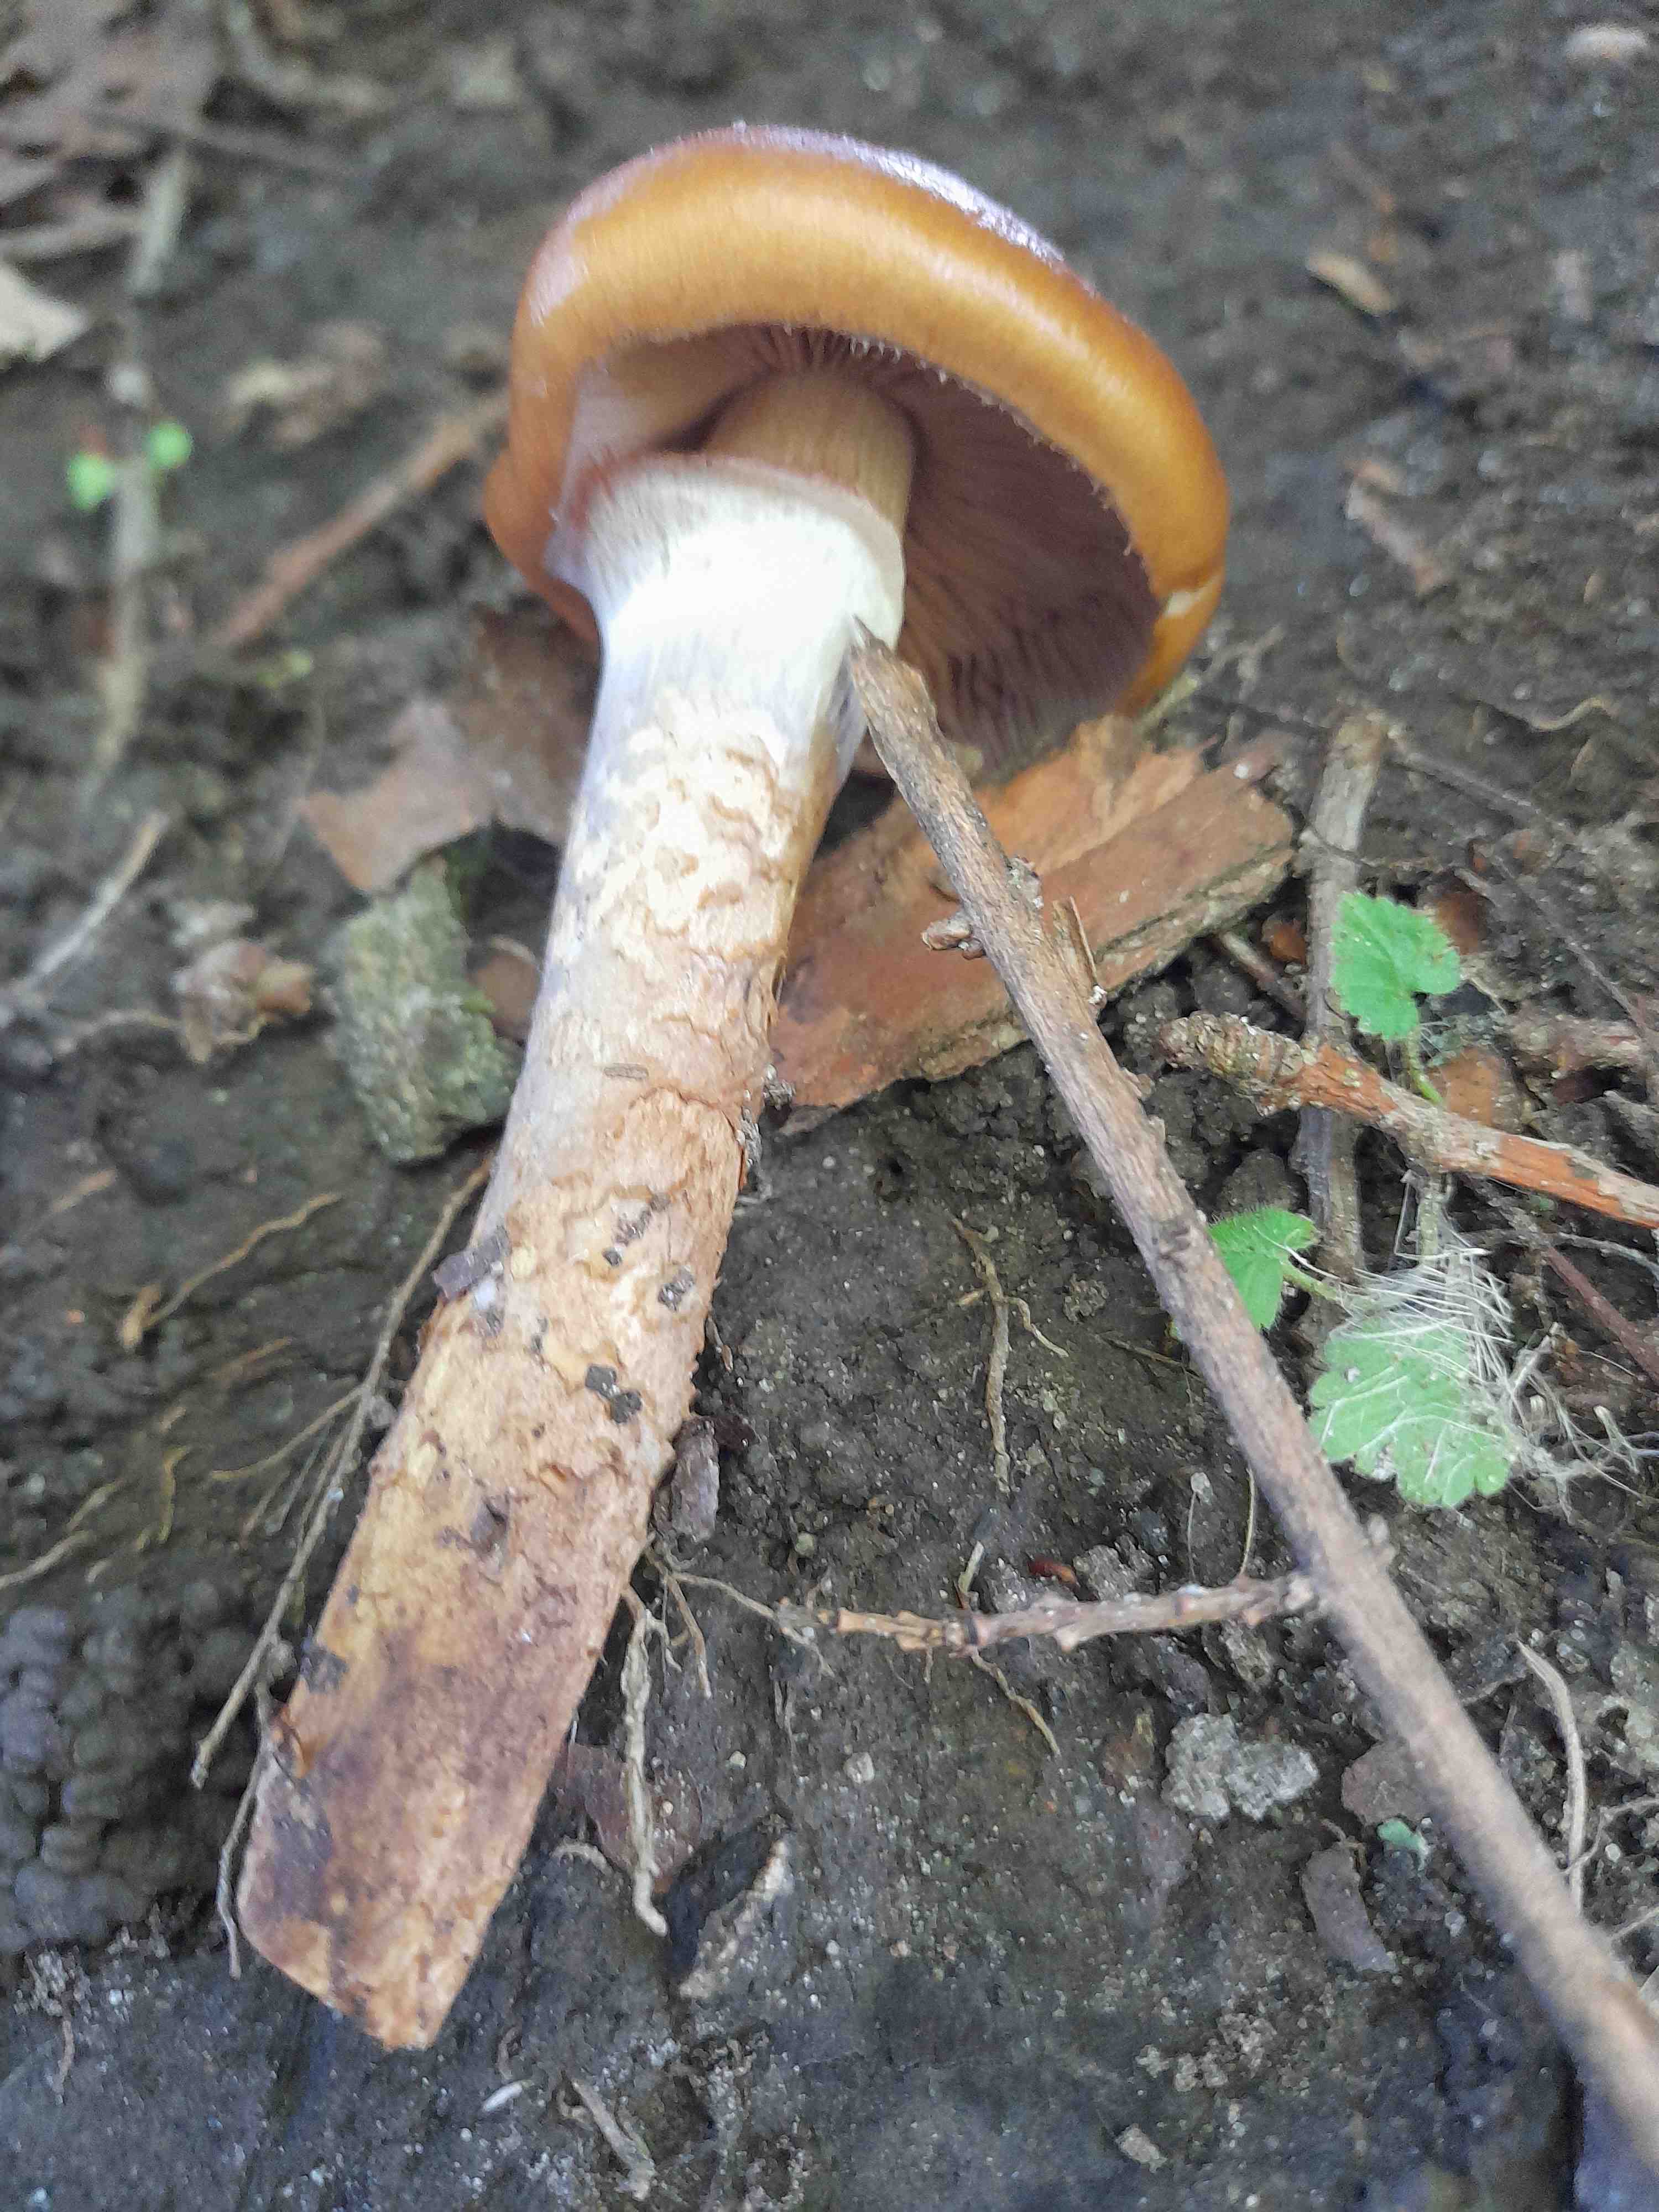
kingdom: Fungi
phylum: Basidiomycota
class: Agaricomycetes
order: Agaricales
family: Cortinariaceae
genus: Cortinarius
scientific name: Cortinarius trivialis
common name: Girdled webcap
